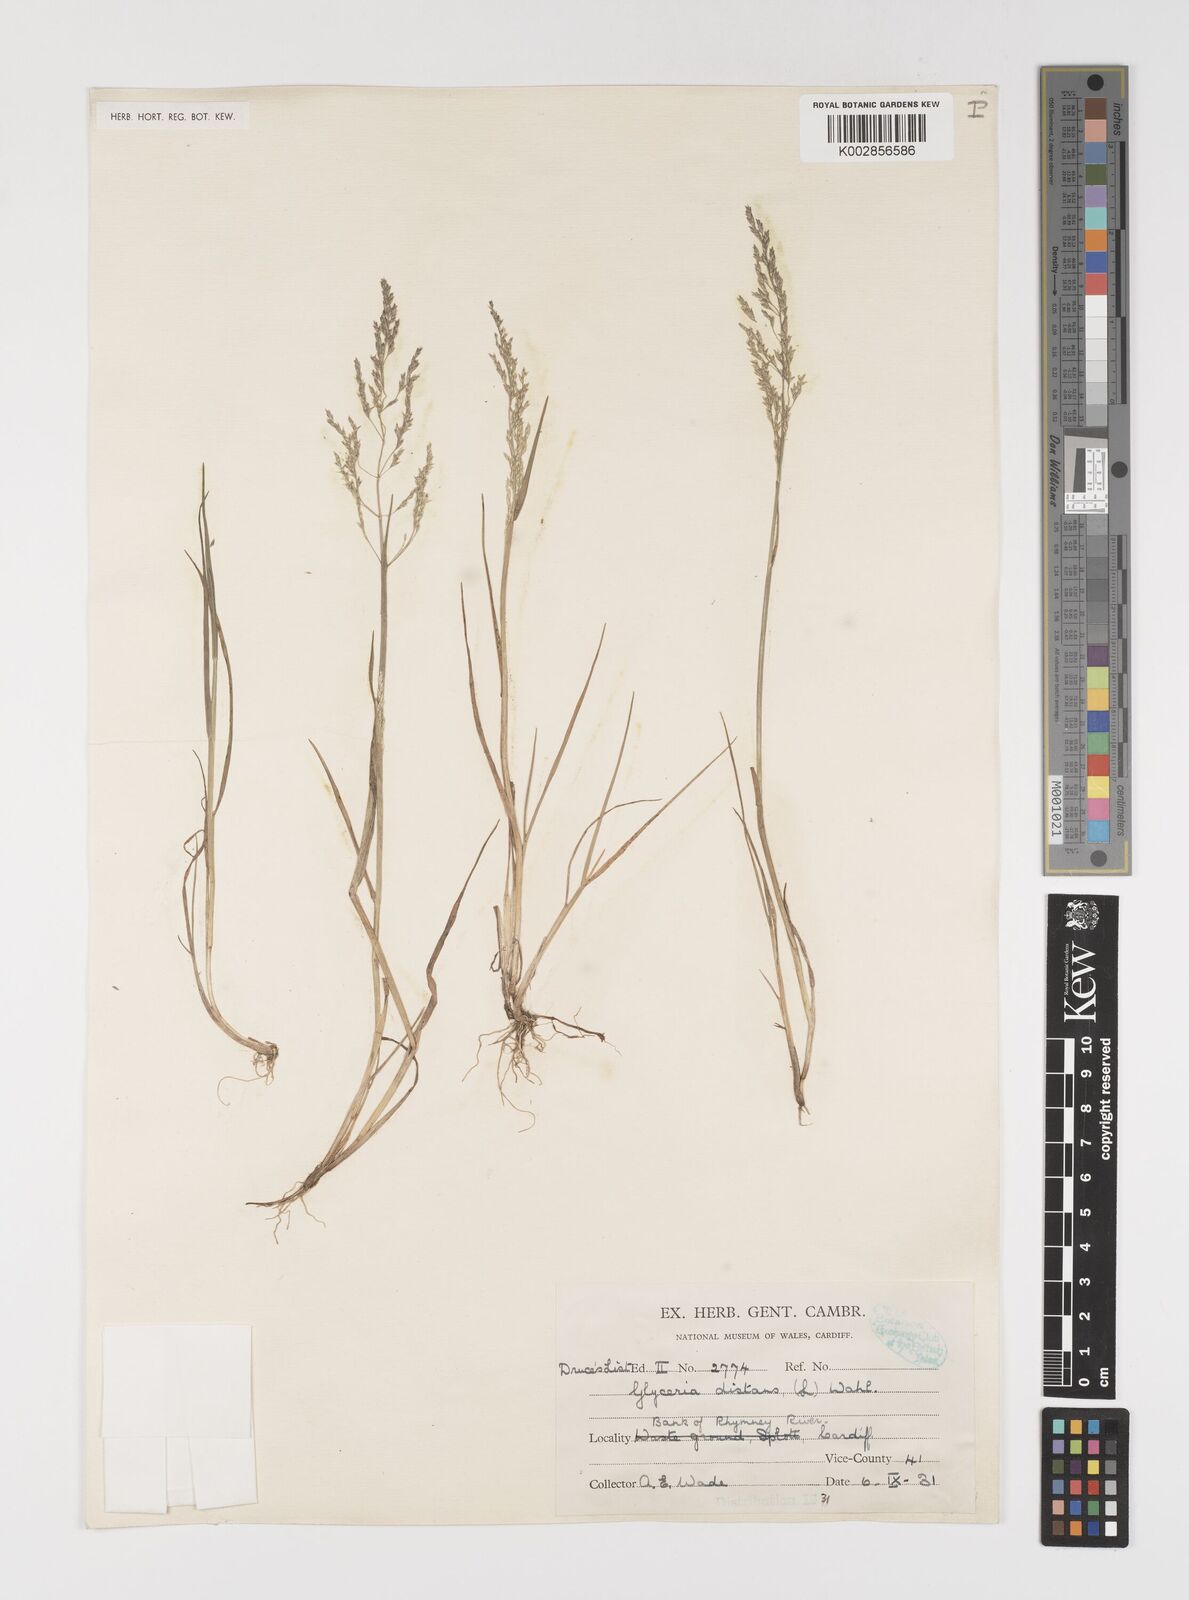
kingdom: Plantae
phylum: Tracheophyta
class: Liliopsida
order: Poales
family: Poaceae
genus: Puccinellia
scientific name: Puccinellia distans
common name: Weeping alkaligrass
